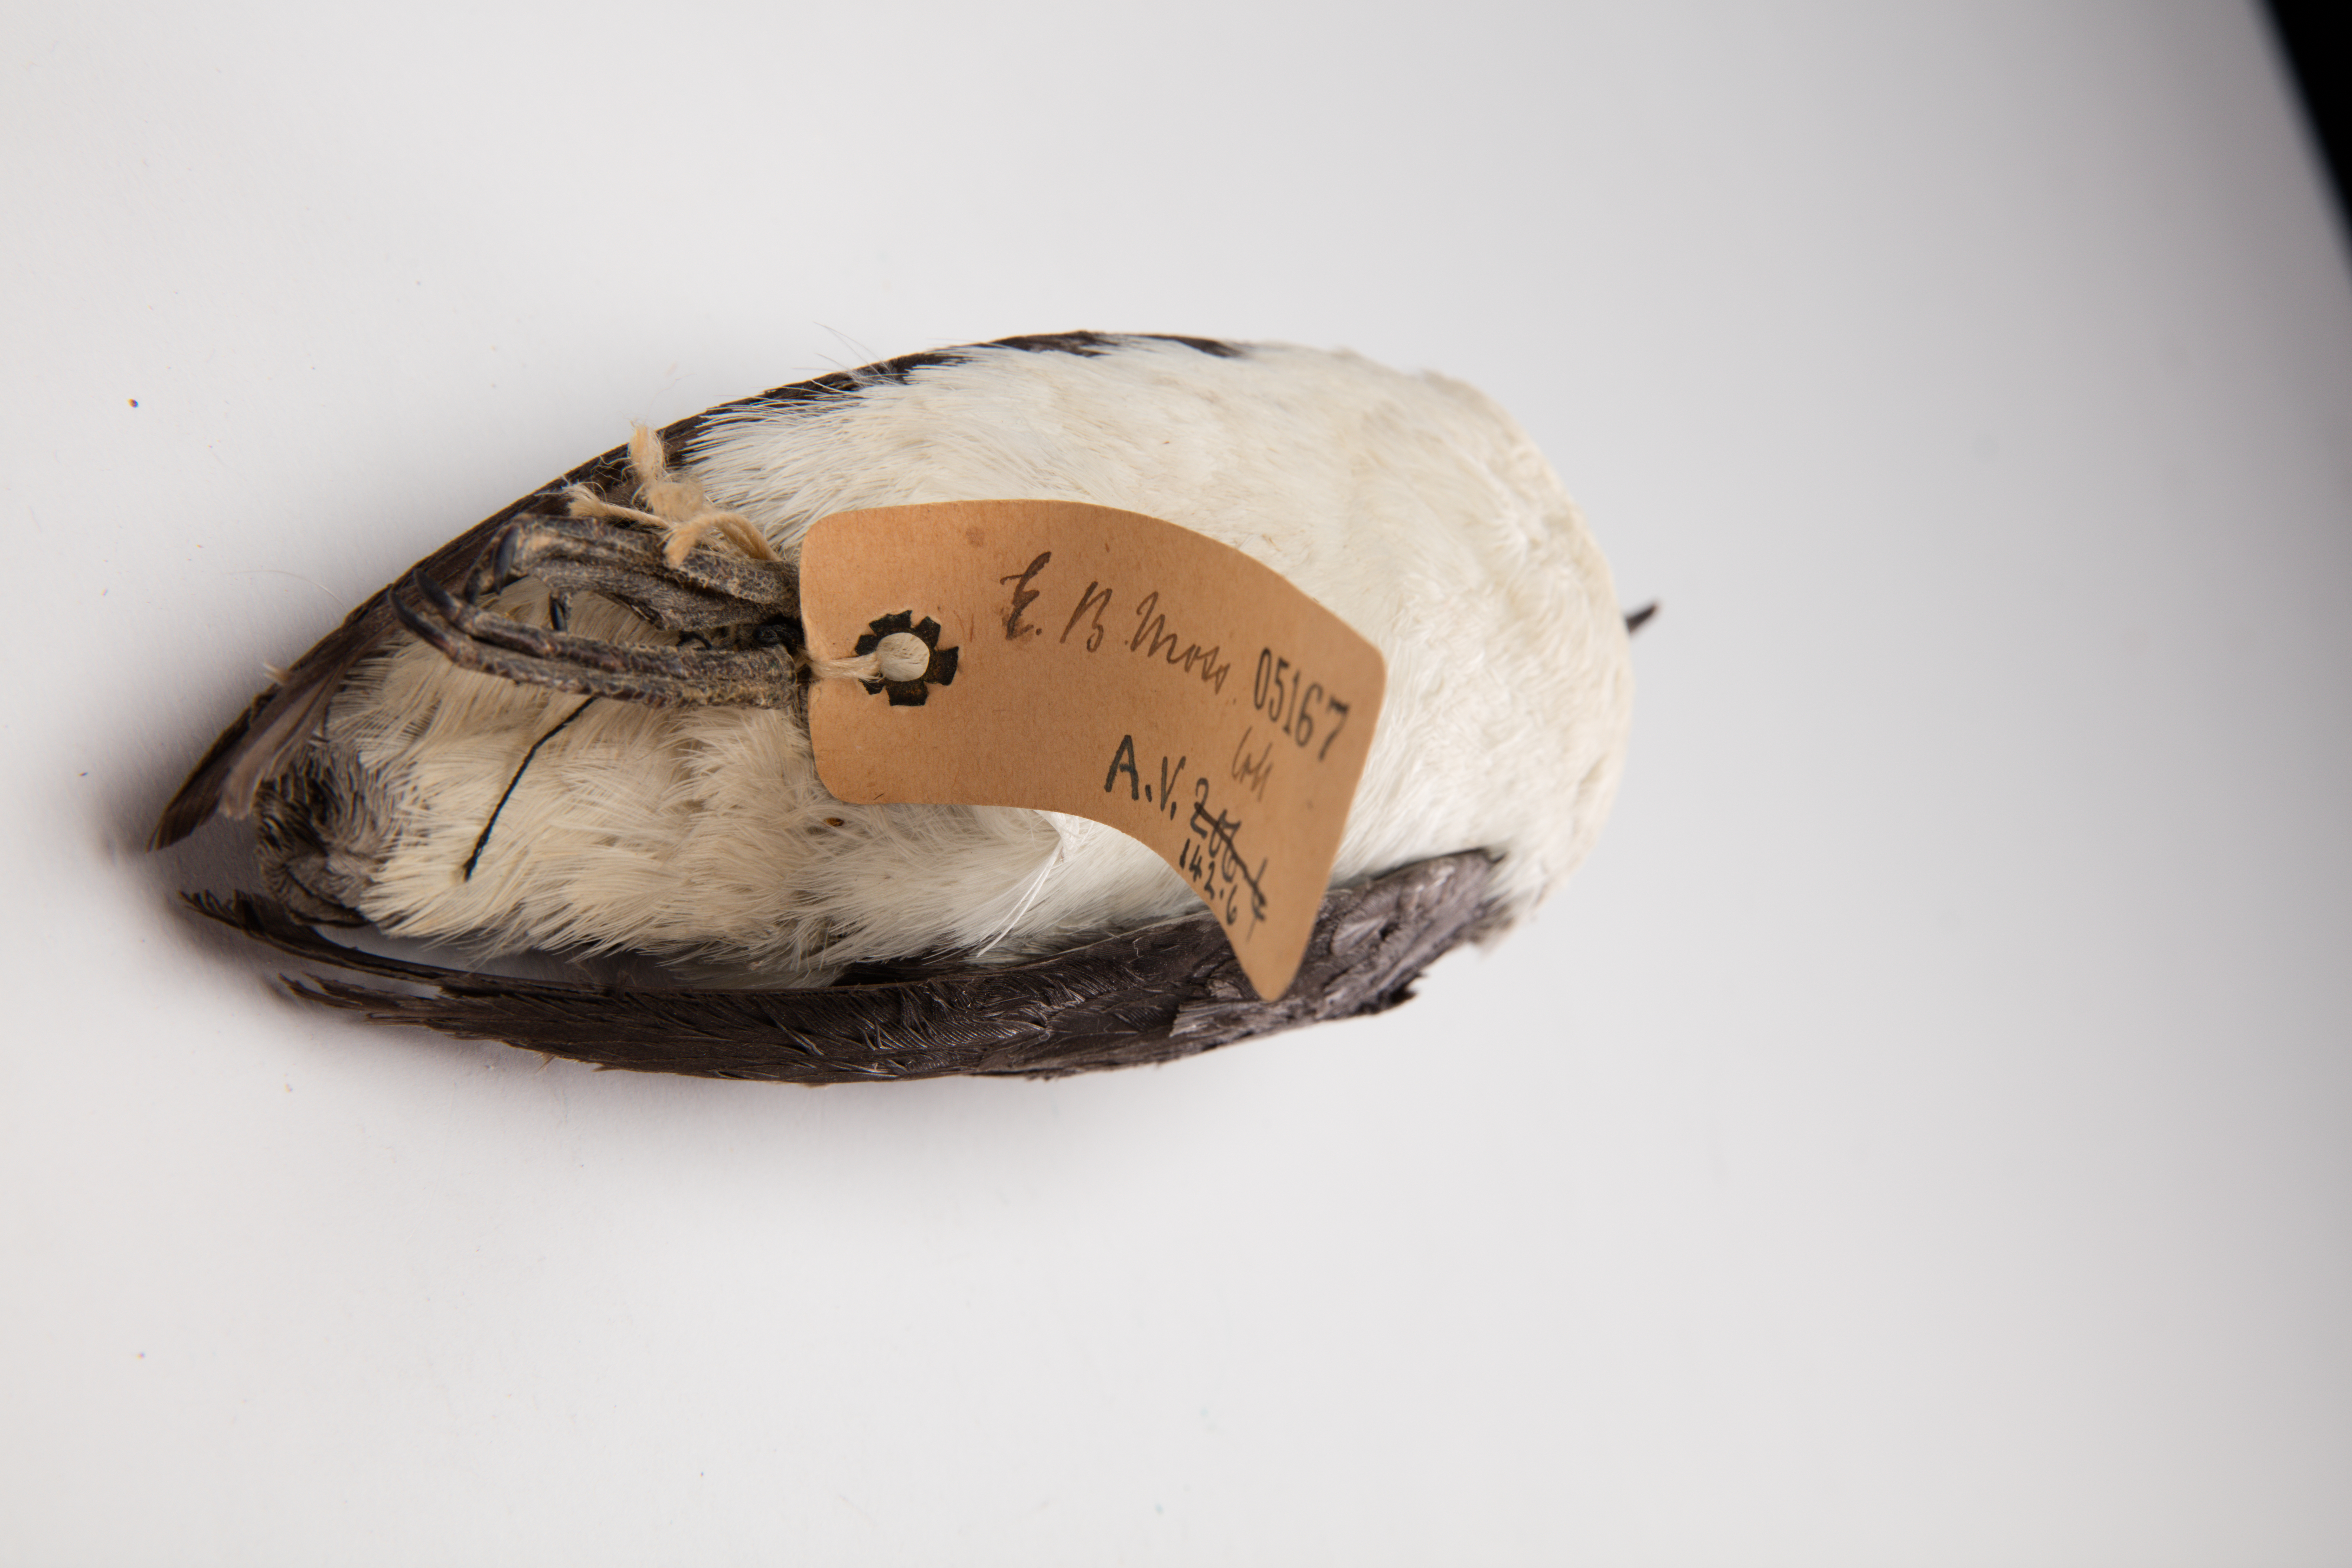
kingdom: Animalia
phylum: Chordata
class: Aves
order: Procellariiformes
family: Pelecanoididae
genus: Pelecanoides
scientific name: Pelecanoides urinatrix
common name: Common diving-petrel
